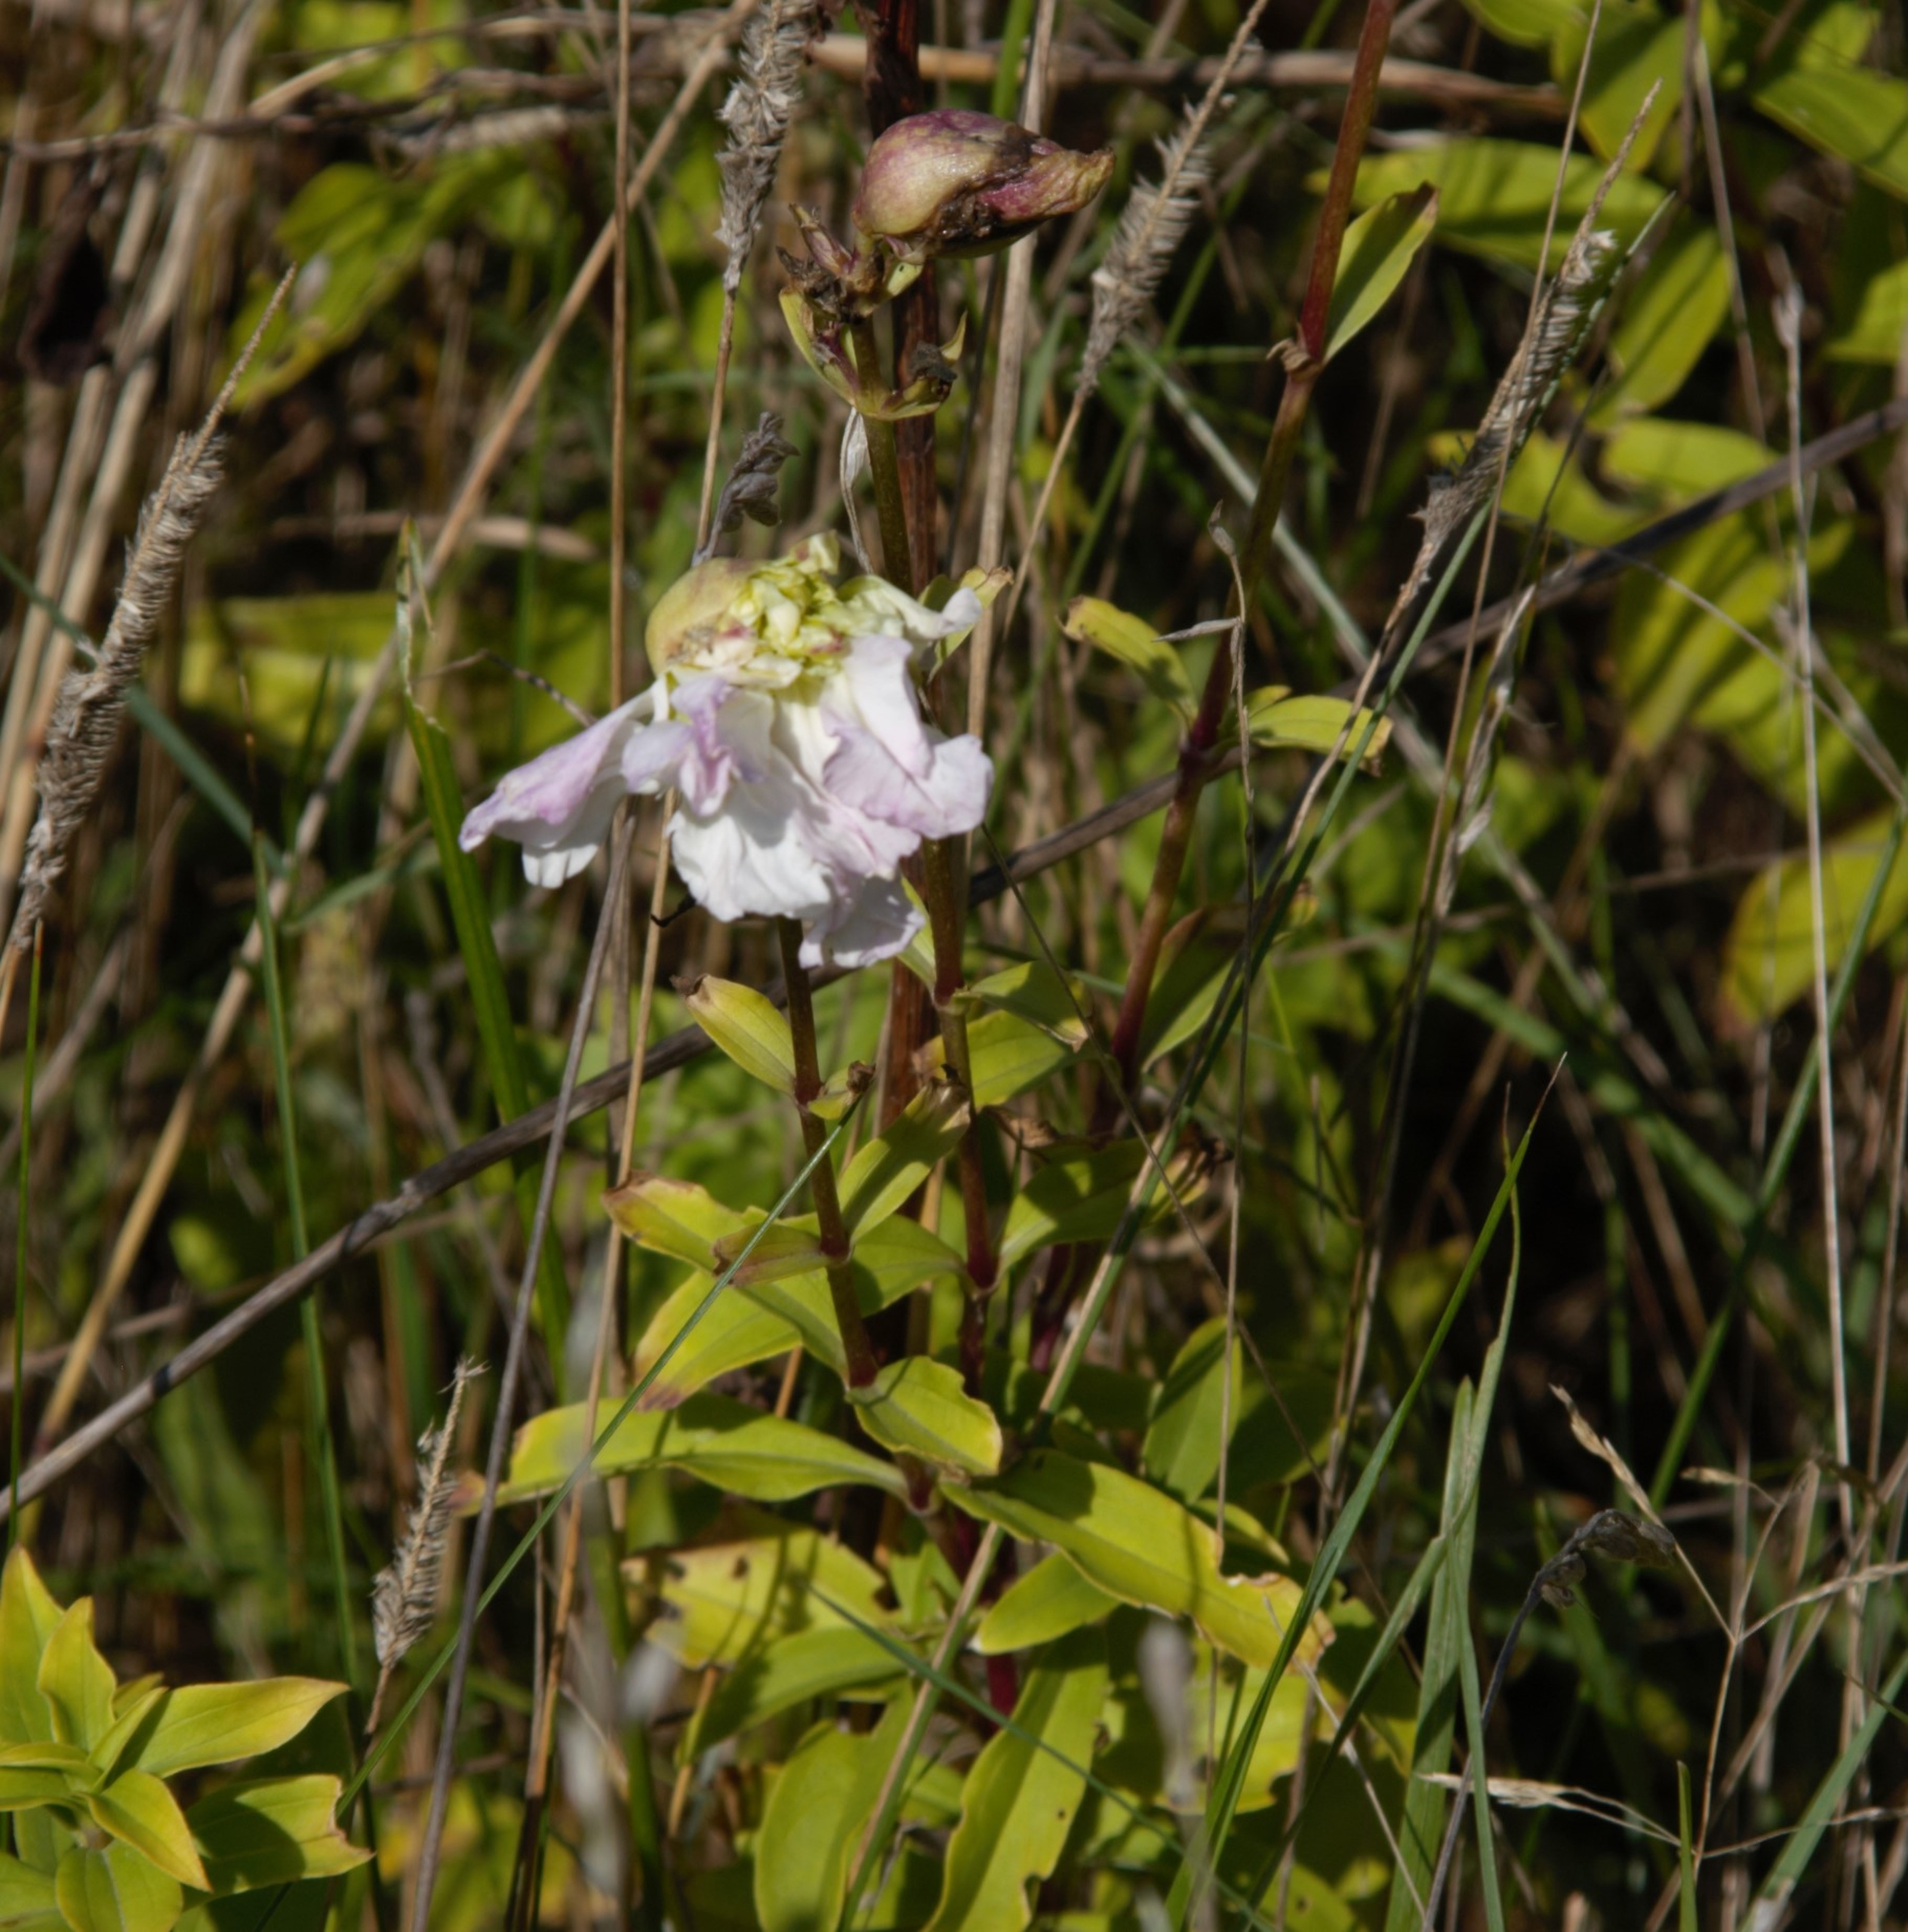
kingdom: Plantae
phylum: Tracheophyta
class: Magnoliopsida
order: Caryophyllales
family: Caryophyllaceae
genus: Saponaria
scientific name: Saponaria officinalis
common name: Sæbeurt
